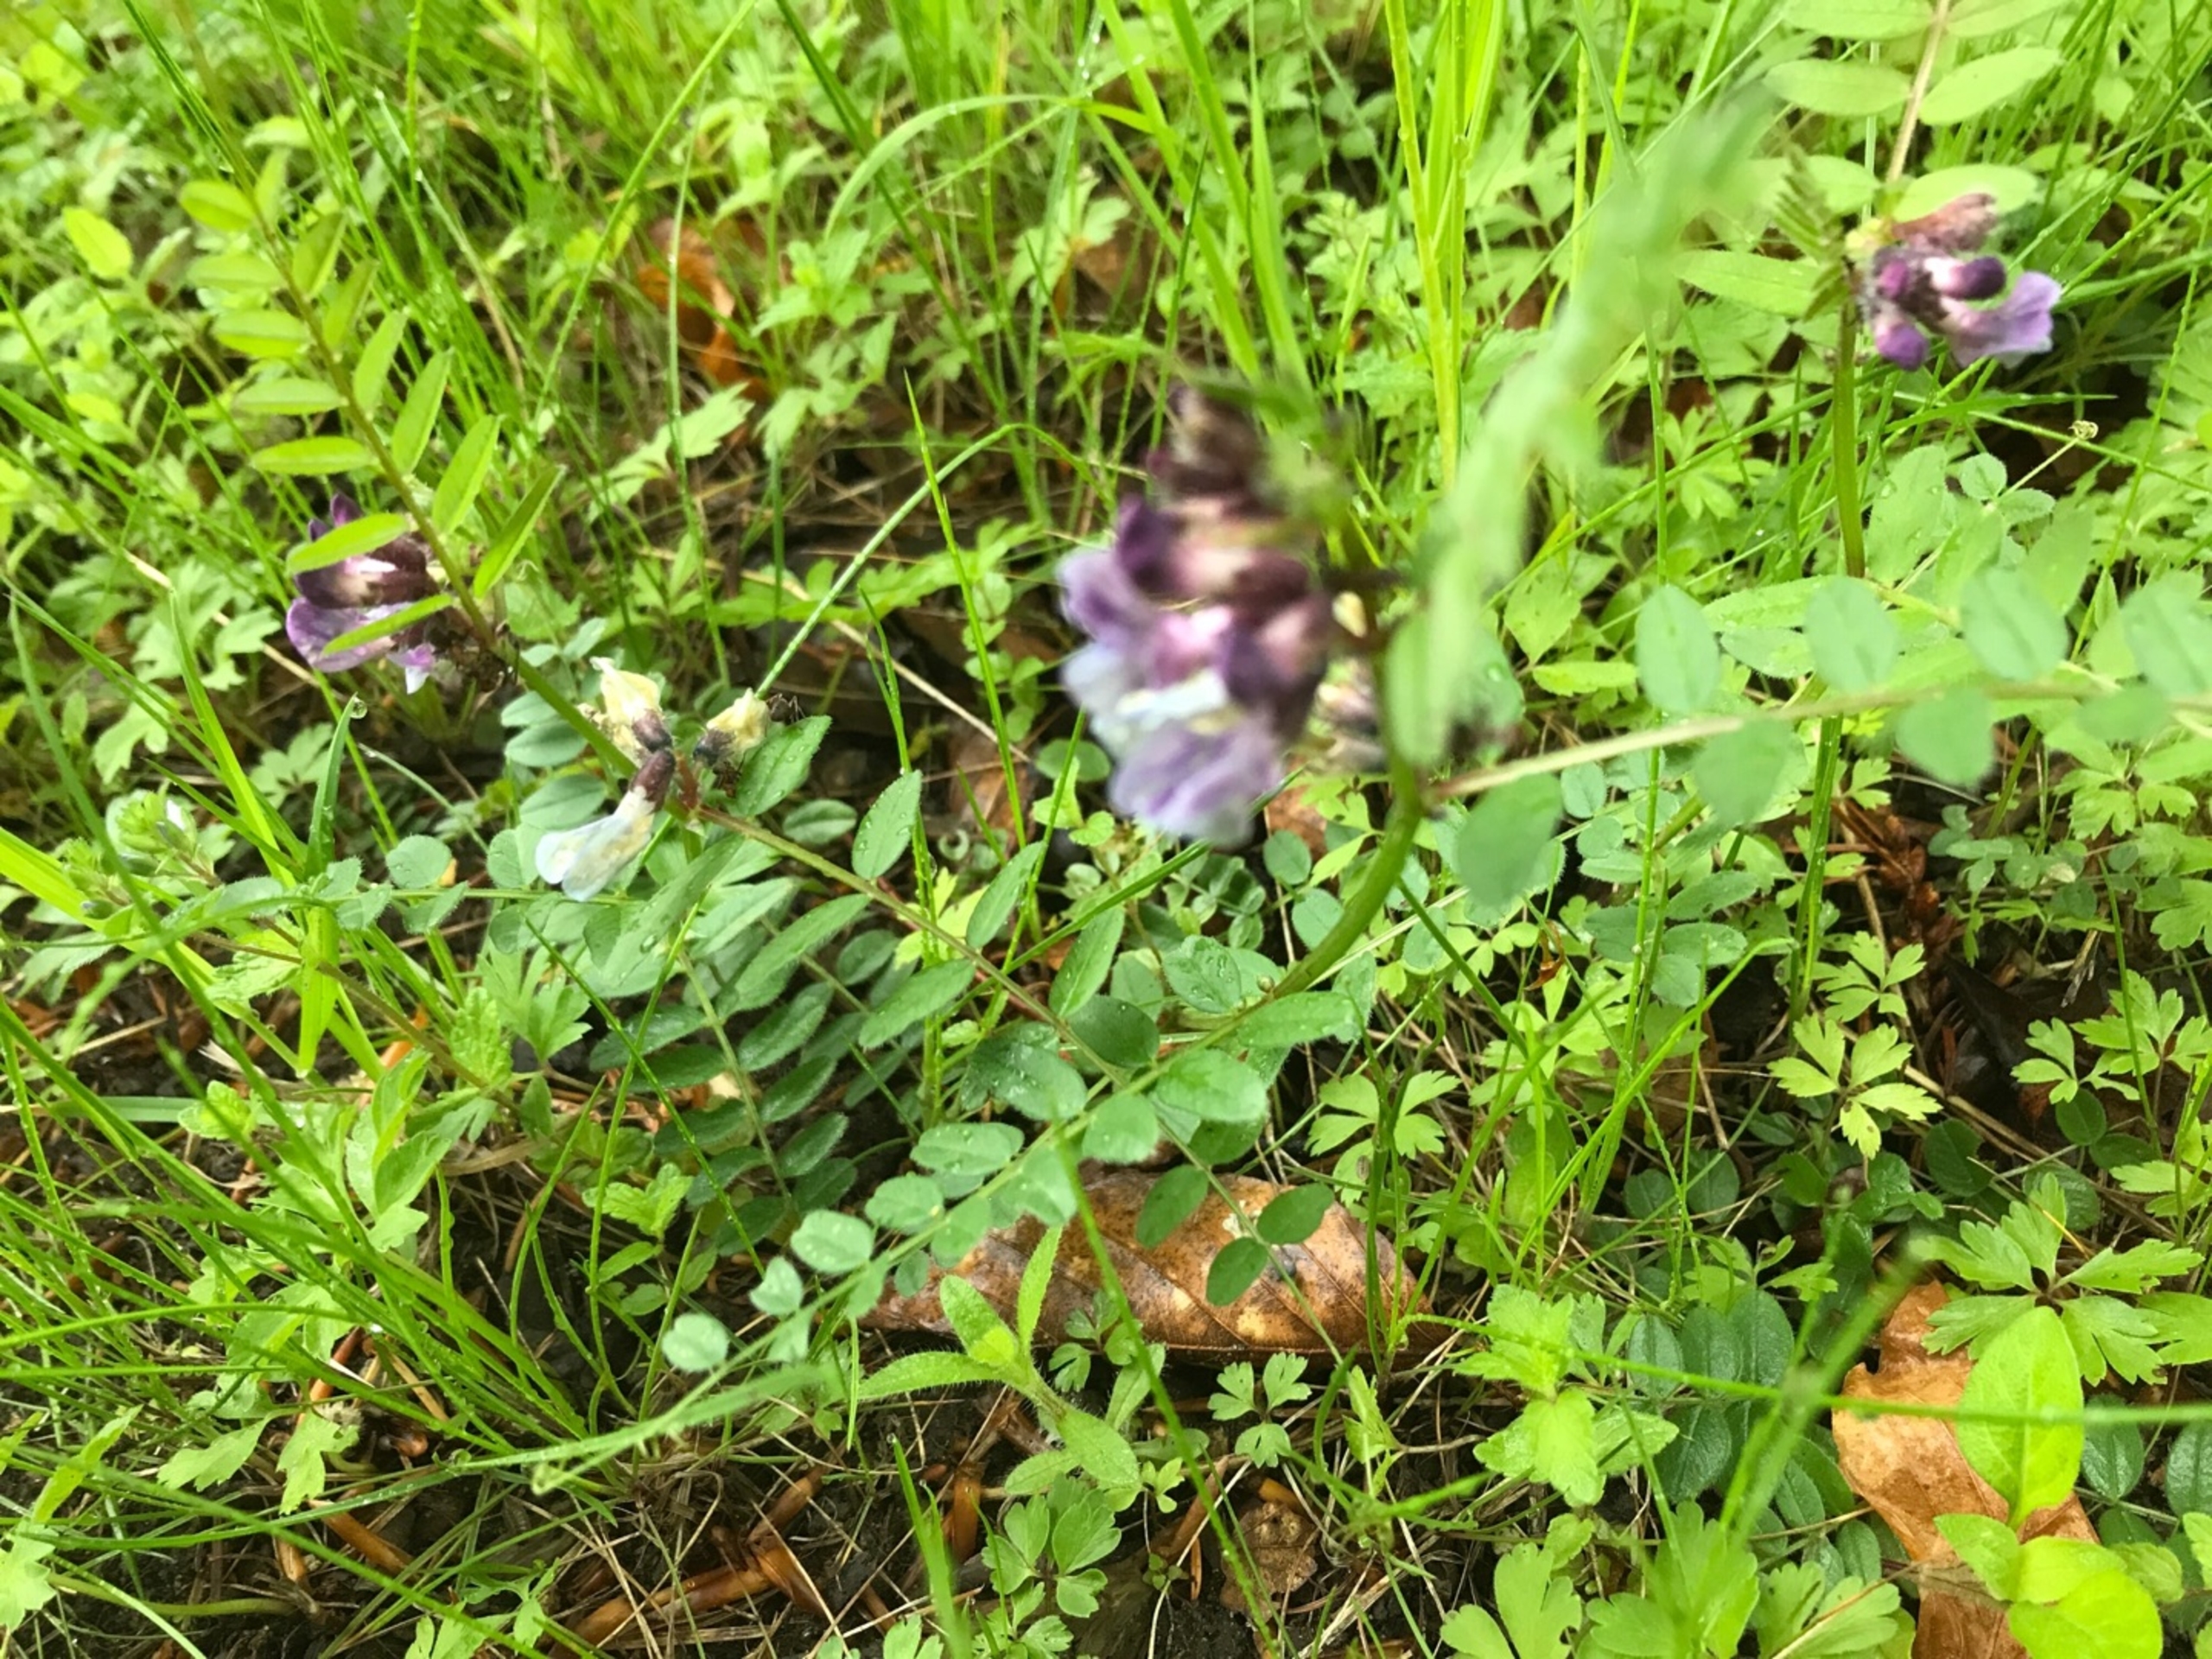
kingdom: Plantae
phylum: Tracheophyta
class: Magnoliopsida
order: Fabales
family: Fabaceae
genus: Vicia
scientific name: Vicia sepium
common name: Almindelig gærde-vikke
